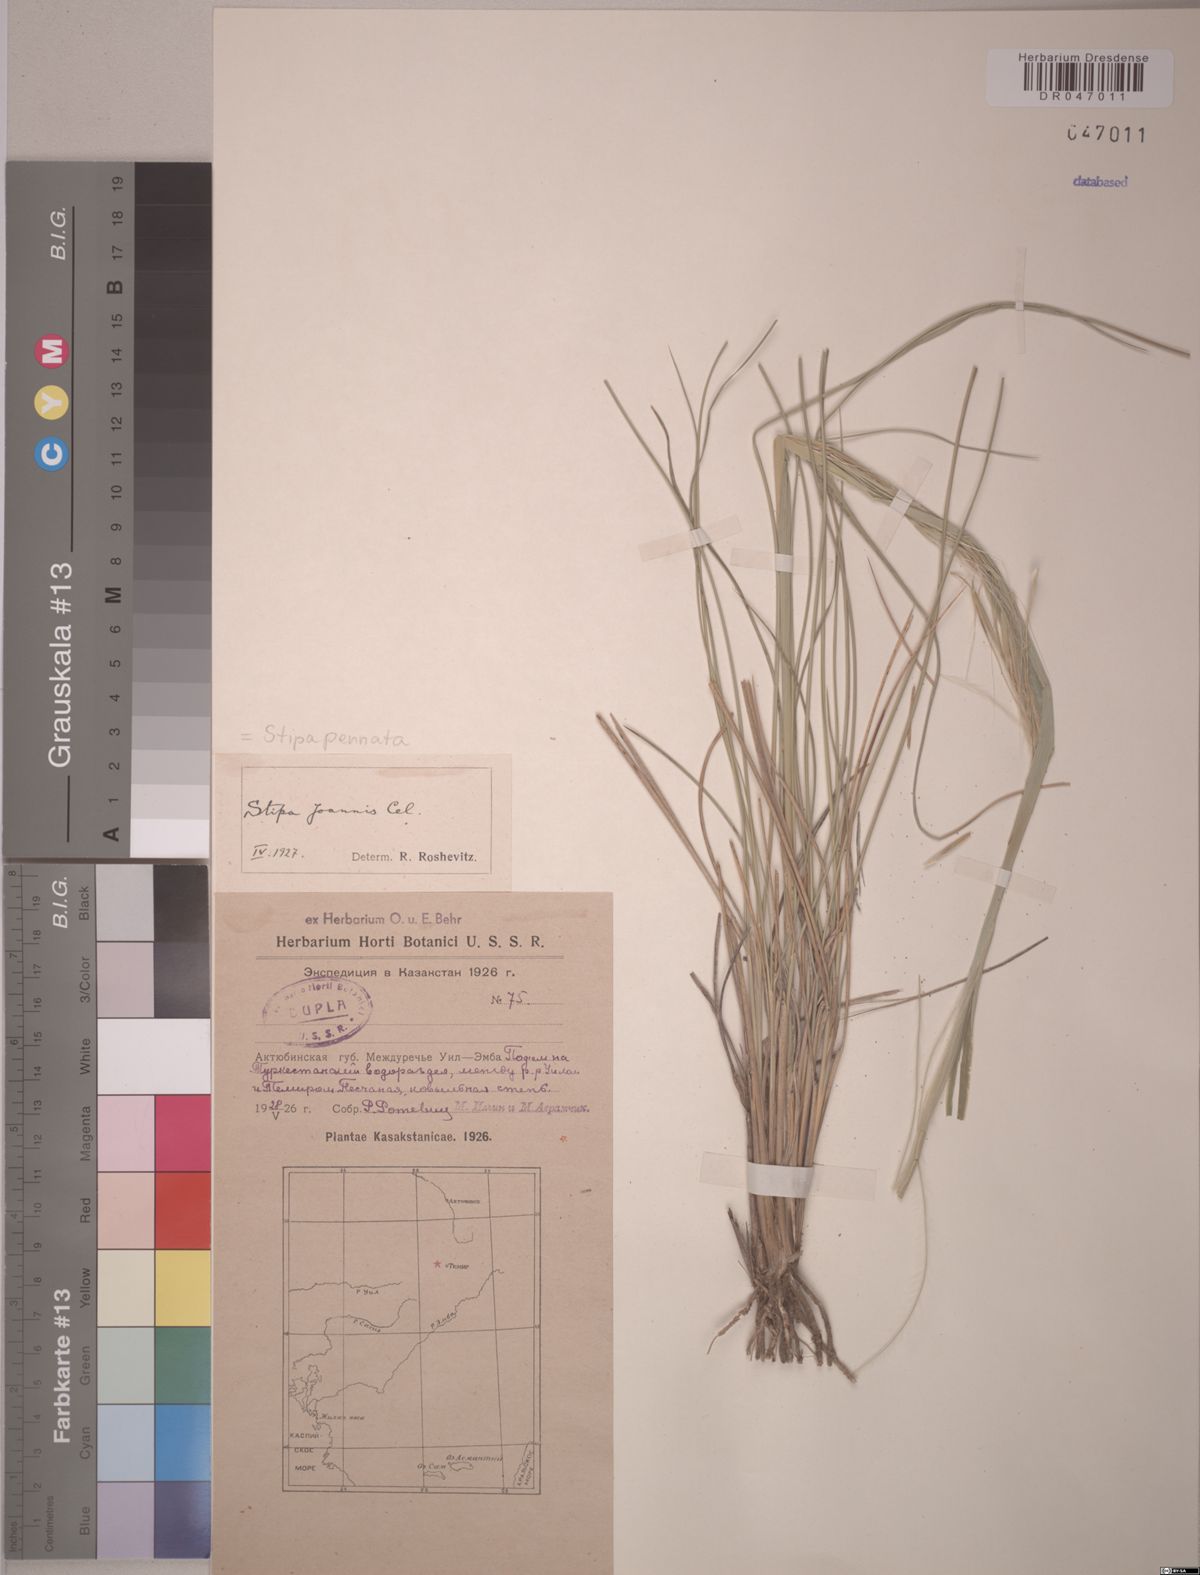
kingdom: Plantae
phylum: Tracheophyta
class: Liliopsida
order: Poales
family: Poaceae
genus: Stipa
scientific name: Stipa pennata
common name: European feather grass
